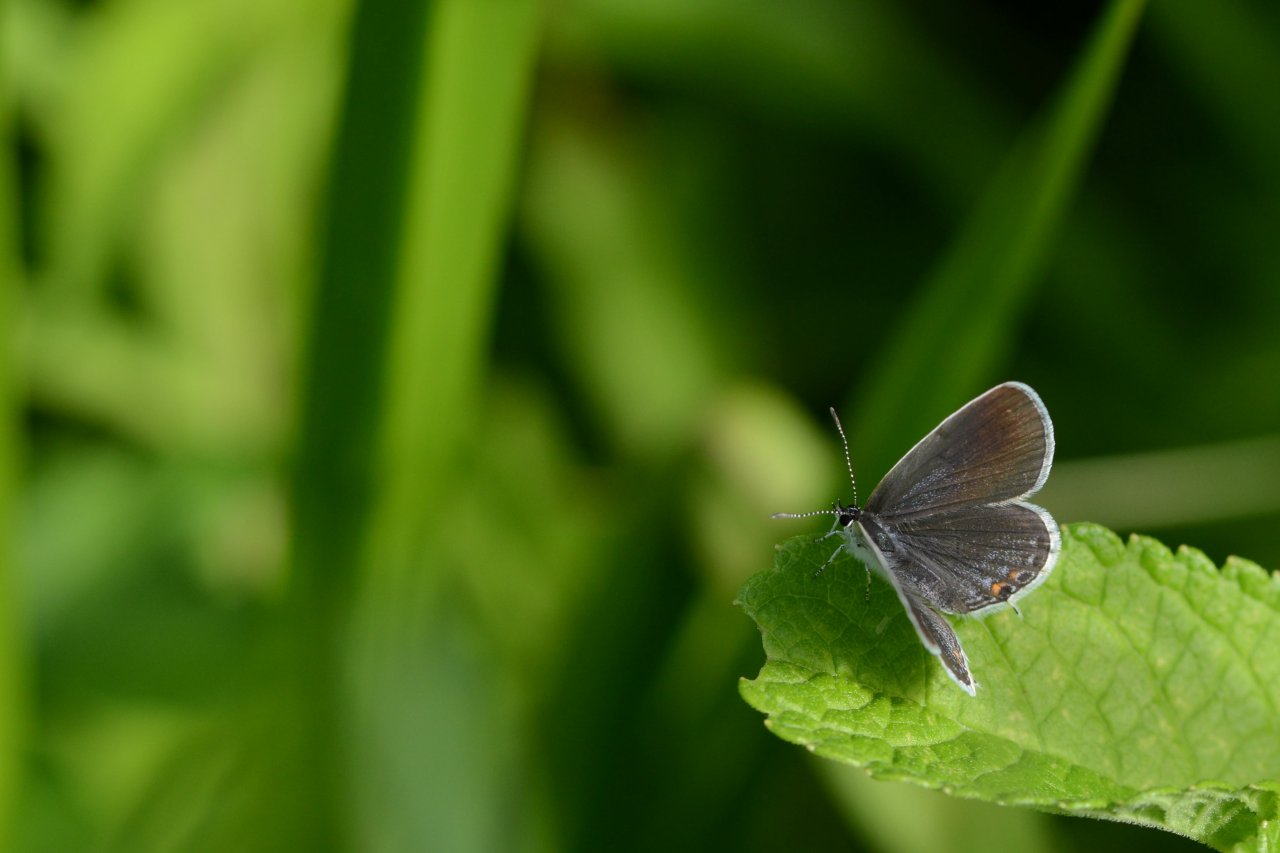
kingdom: Animalia
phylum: Arthropoda
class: Insecta
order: Lepidoptera
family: Lycaenidae
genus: Elkalyce
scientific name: Elkalyce comyntas
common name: Eastern Tailed-Blue
